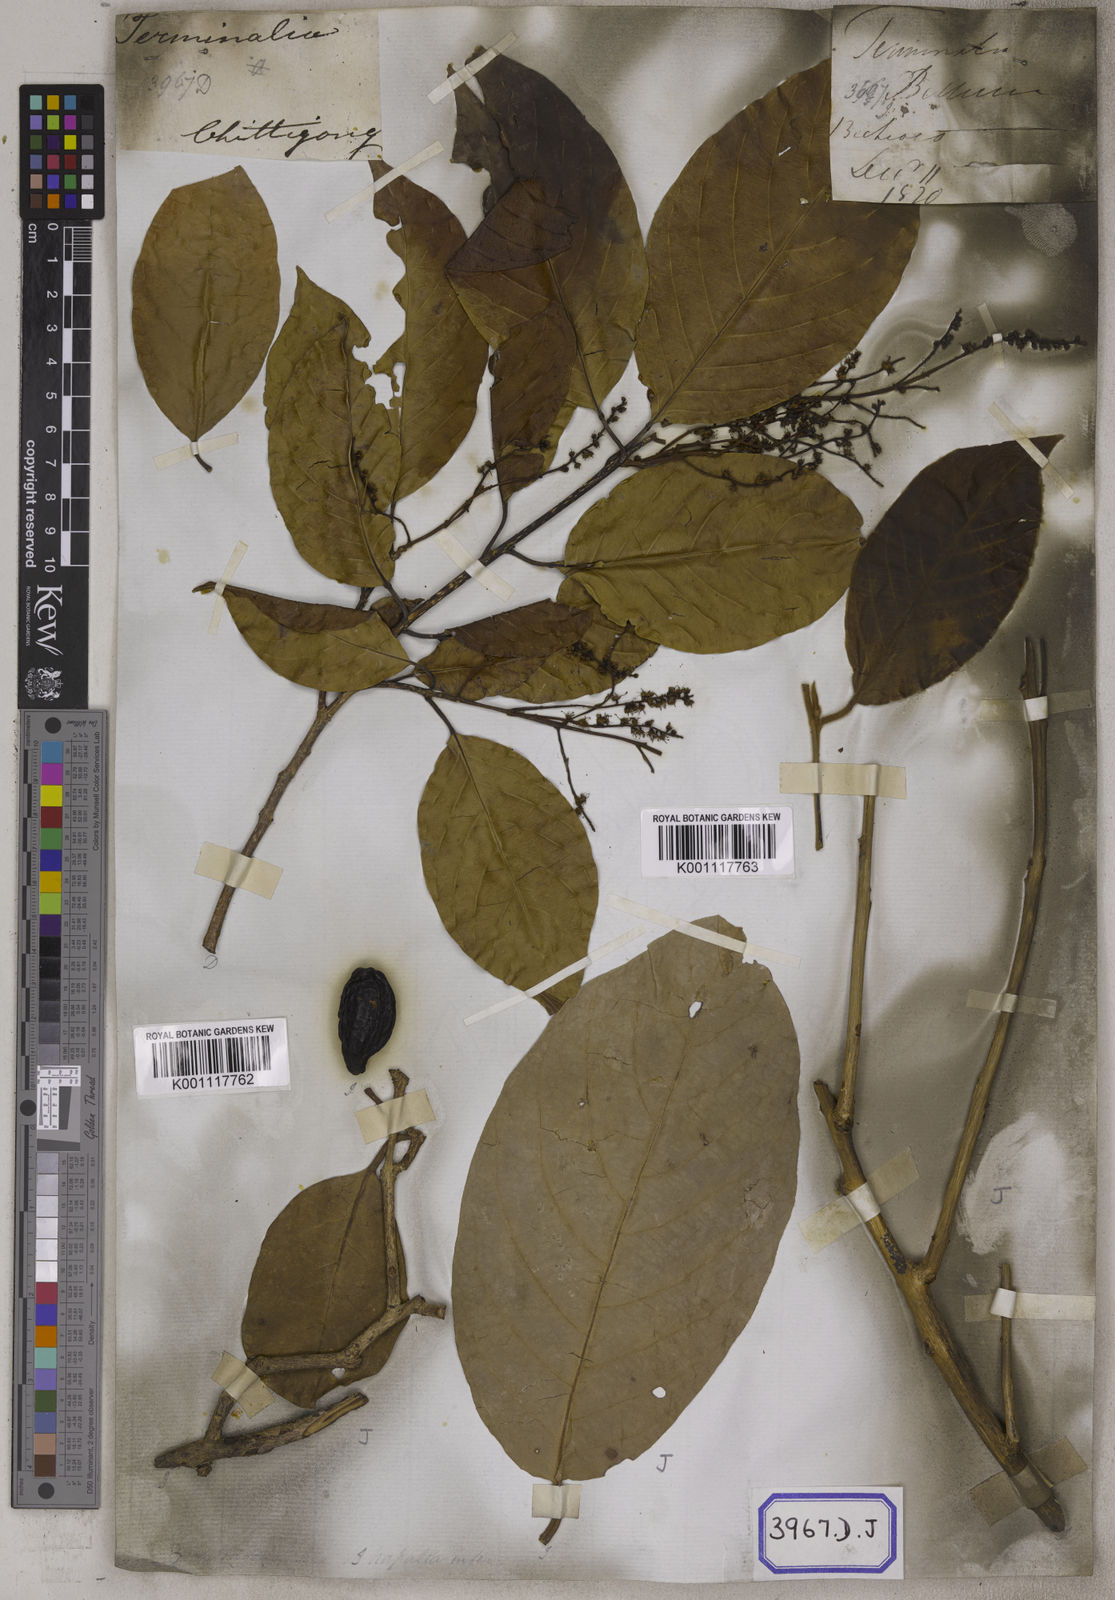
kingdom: Plantae
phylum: Tracheophyta
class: Magnoliopsida
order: Myrtales
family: Combretaceae
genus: Terminalia
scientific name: Terminalia chebula
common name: Myrobalan
